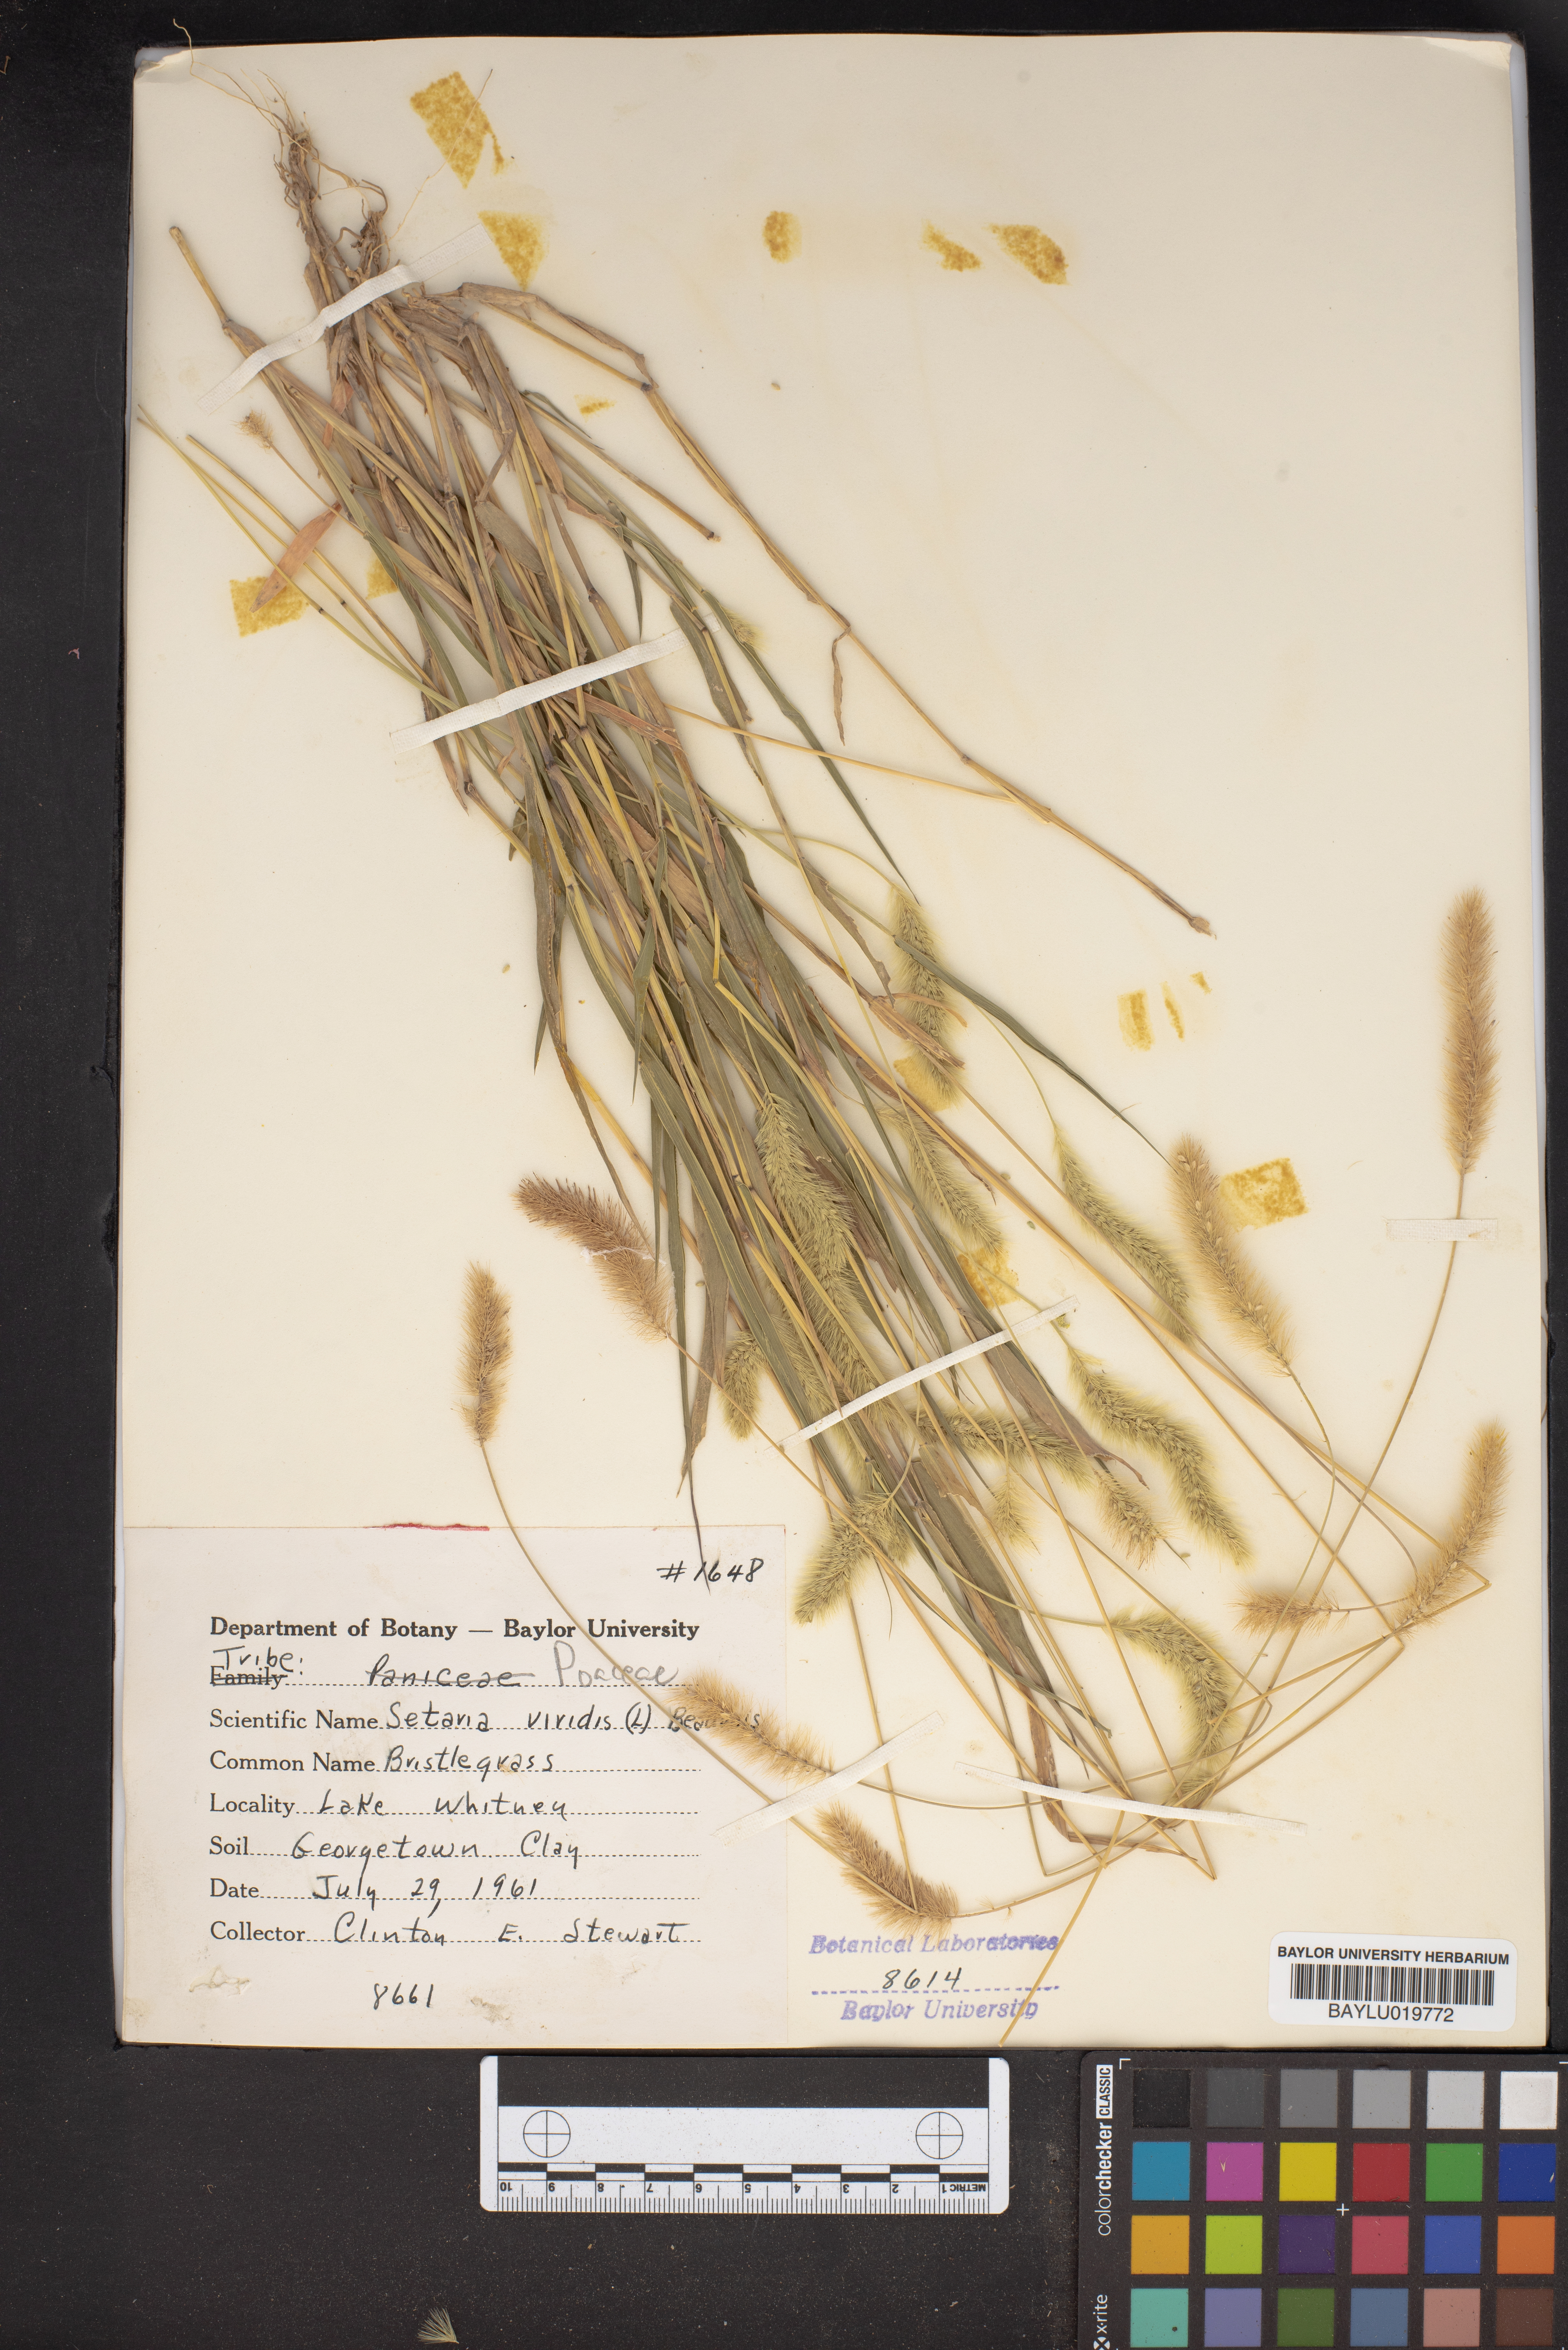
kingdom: Plantae
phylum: Tracheophyta
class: Liliopsida
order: Poales
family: Poaceae
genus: Setaria
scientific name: Setaria viridis
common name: Green bristlegrass
